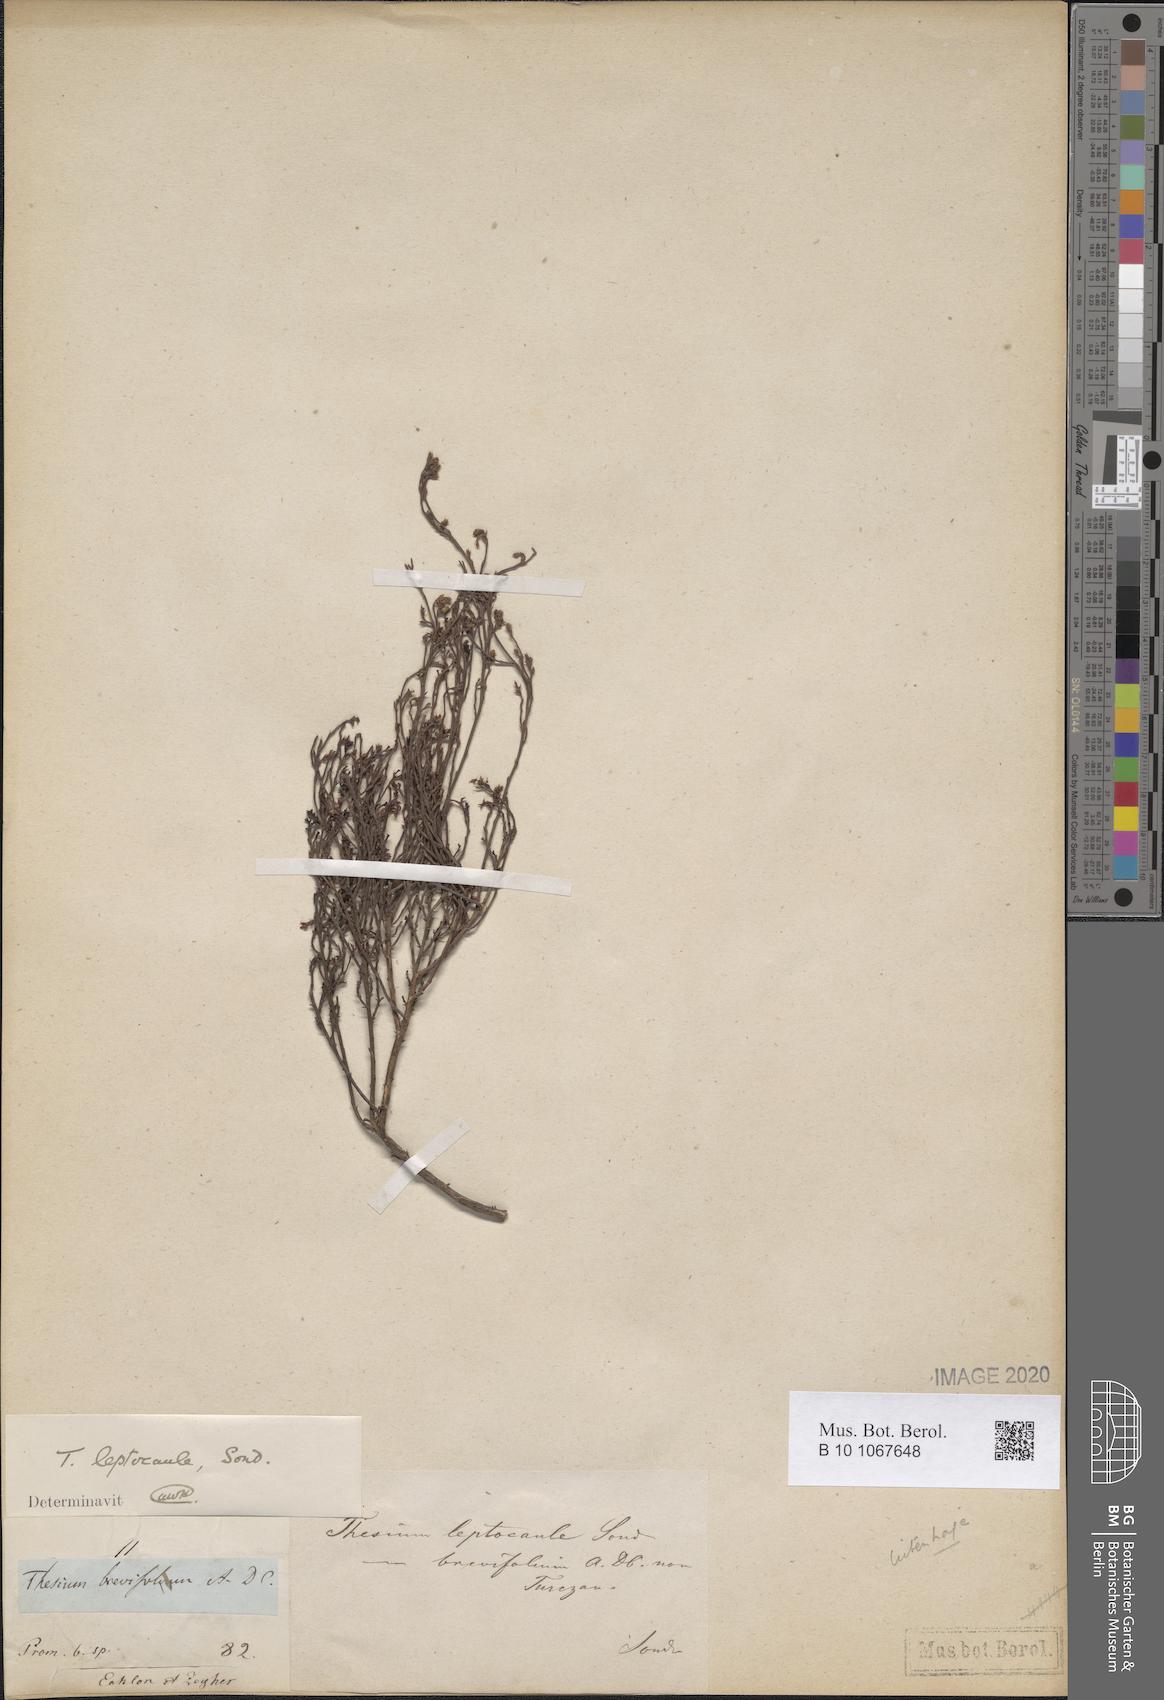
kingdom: Plantae
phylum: Tracheophyta
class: Magnoliopsida
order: Santalales
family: Thesiaceae
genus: Thesium
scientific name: Thesium leptocaule
